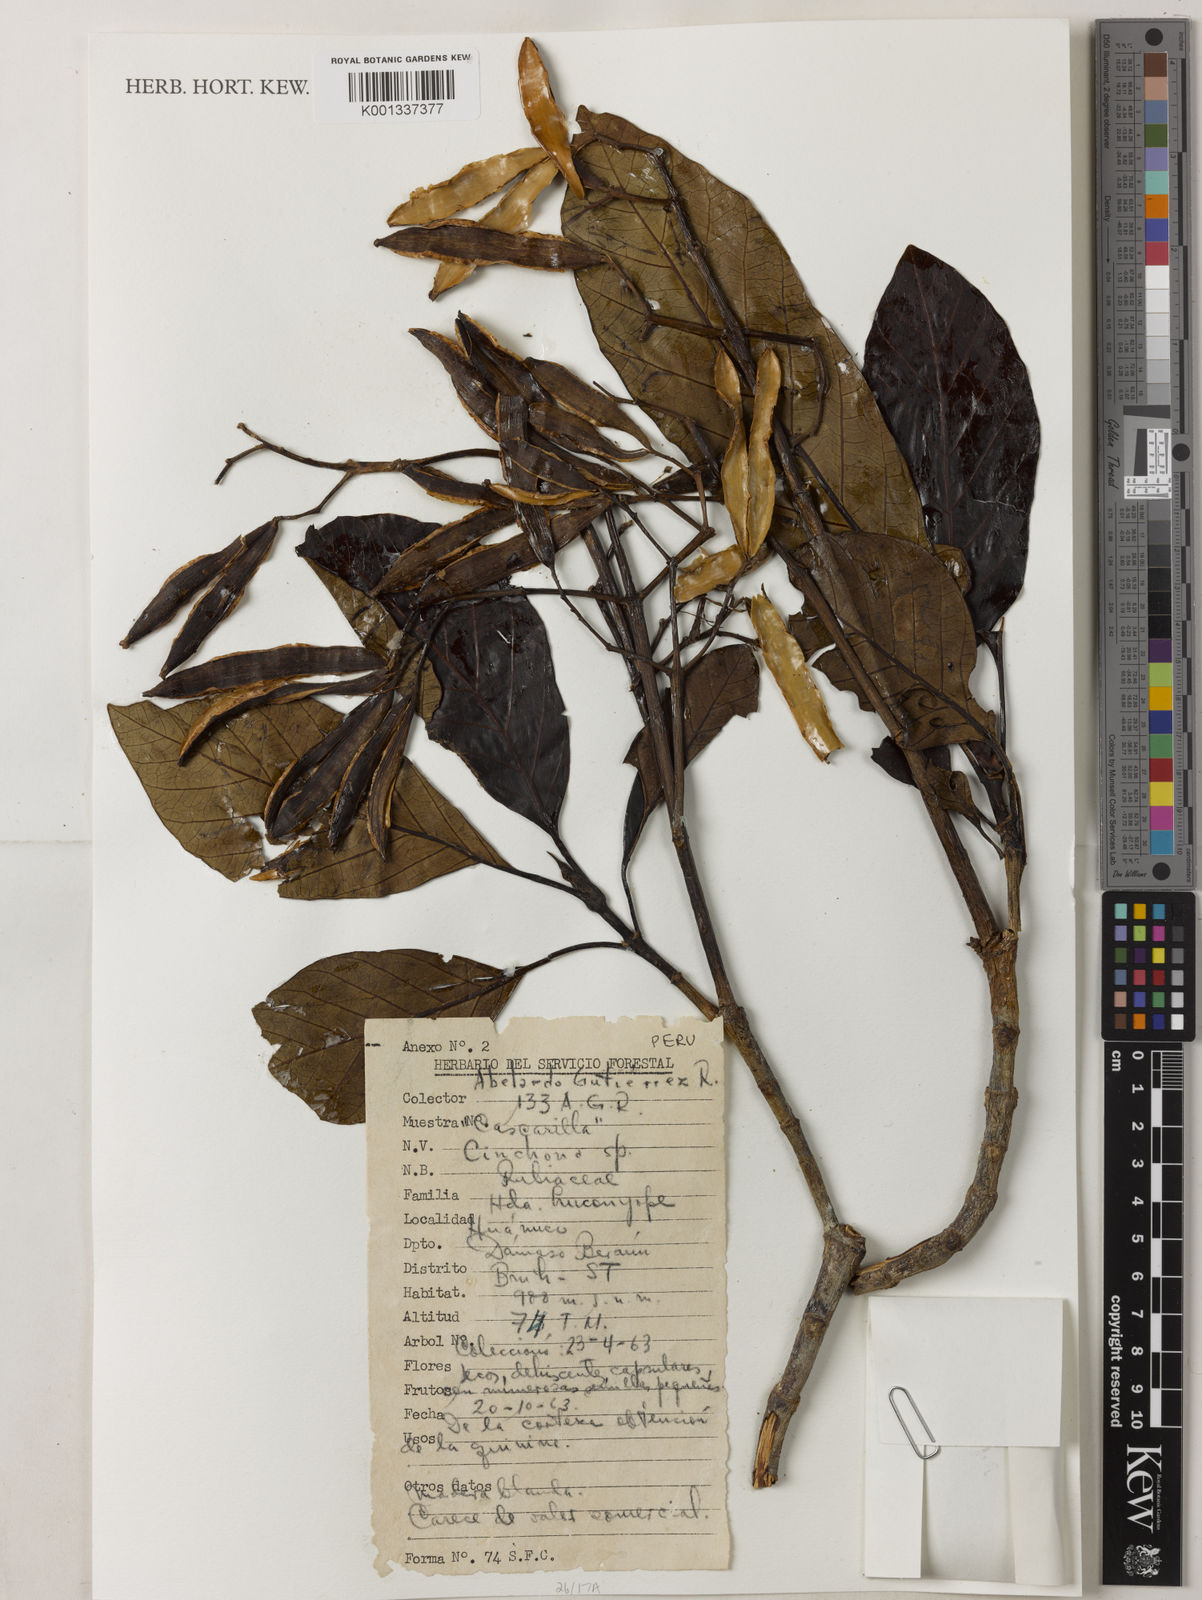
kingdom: Plantae
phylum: Tracheophyta
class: Magnoliopsida
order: Gentianales
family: Rubiaceae
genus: Cinchona
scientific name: Cinchona
